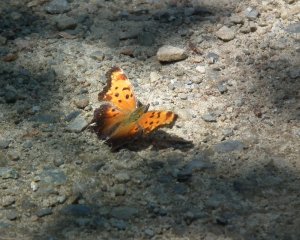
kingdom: Animalia
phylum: Arthropoda
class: Insecta
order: Lepidoptera
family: Nymphalidae
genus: Polygonia
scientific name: Polygonia comma
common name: Eastern Comma
